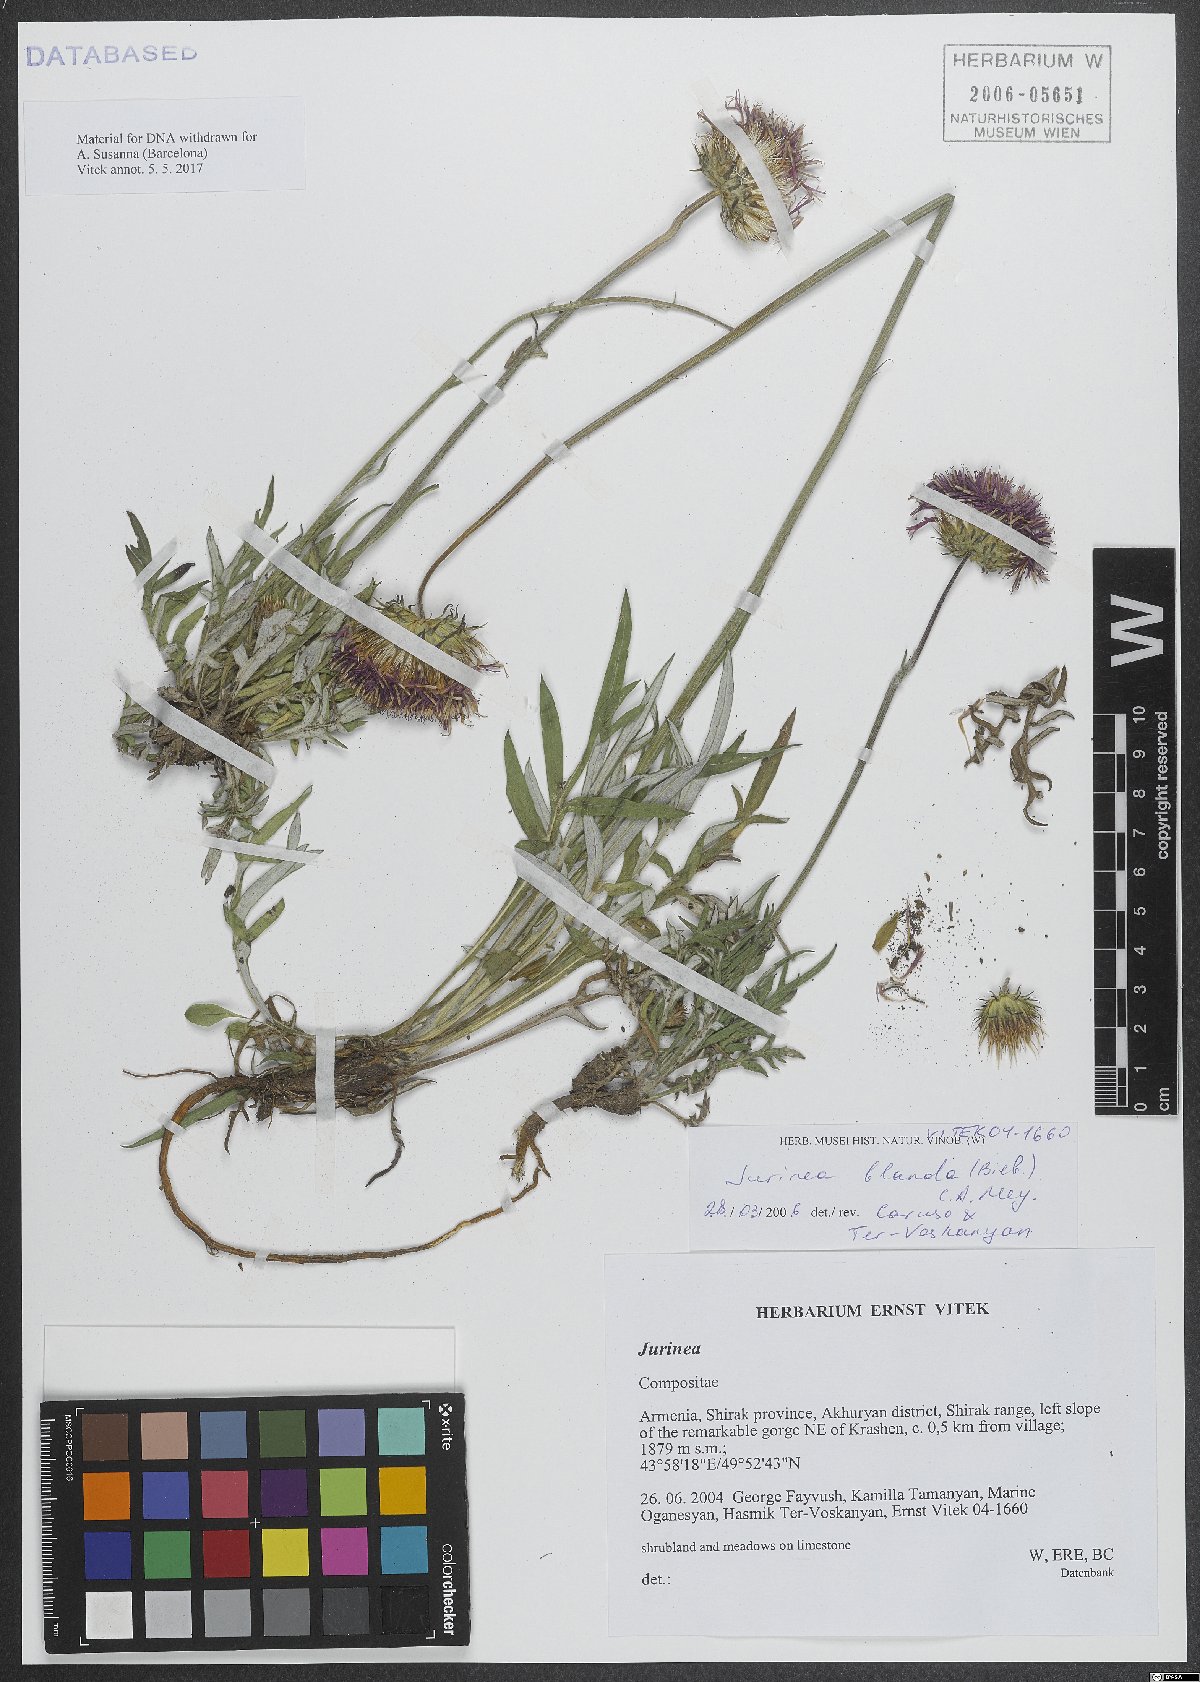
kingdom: Plantae
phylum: Tracheophyta
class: Magnoliopsida
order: Asterales
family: Asteraceae
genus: Jurinea
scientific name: Jurinea blanda
